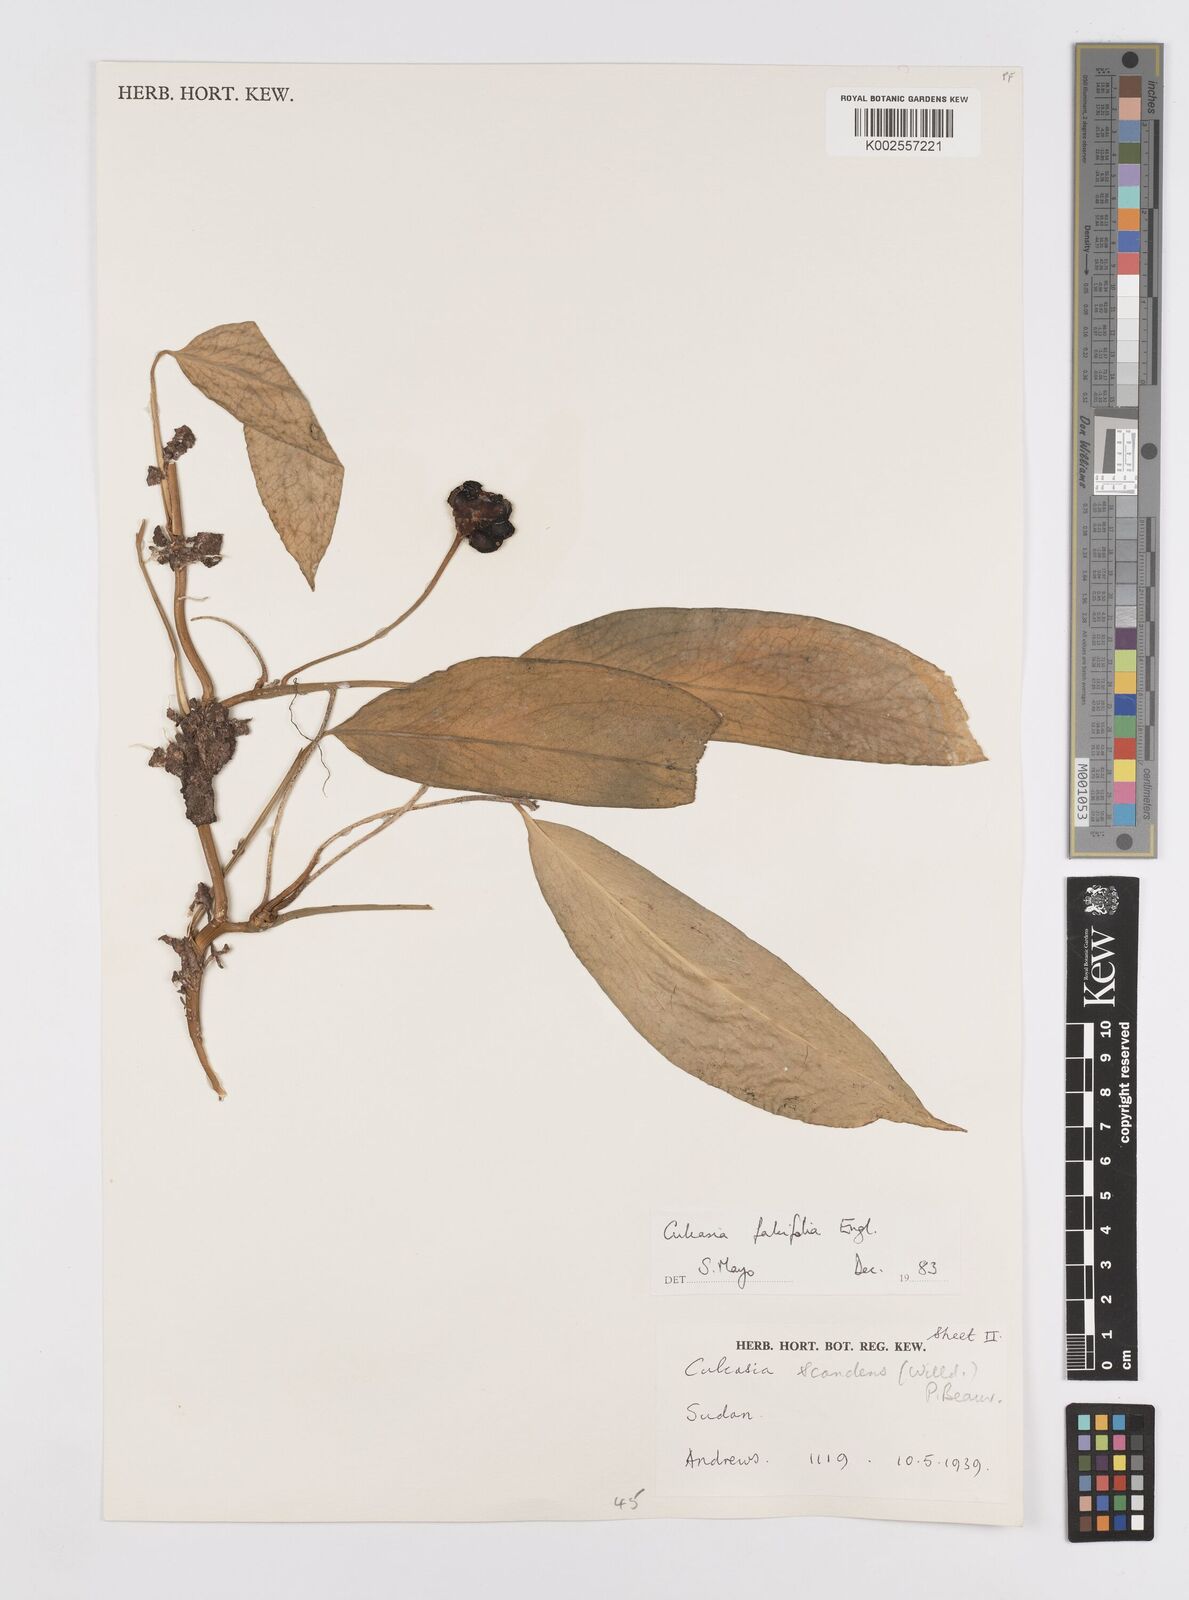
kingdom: Plantae
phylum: Tracheophyta
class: Liliopsida
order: Alismatales
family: Araceae
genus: Culcasia
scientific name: Culcasia falcifolia
